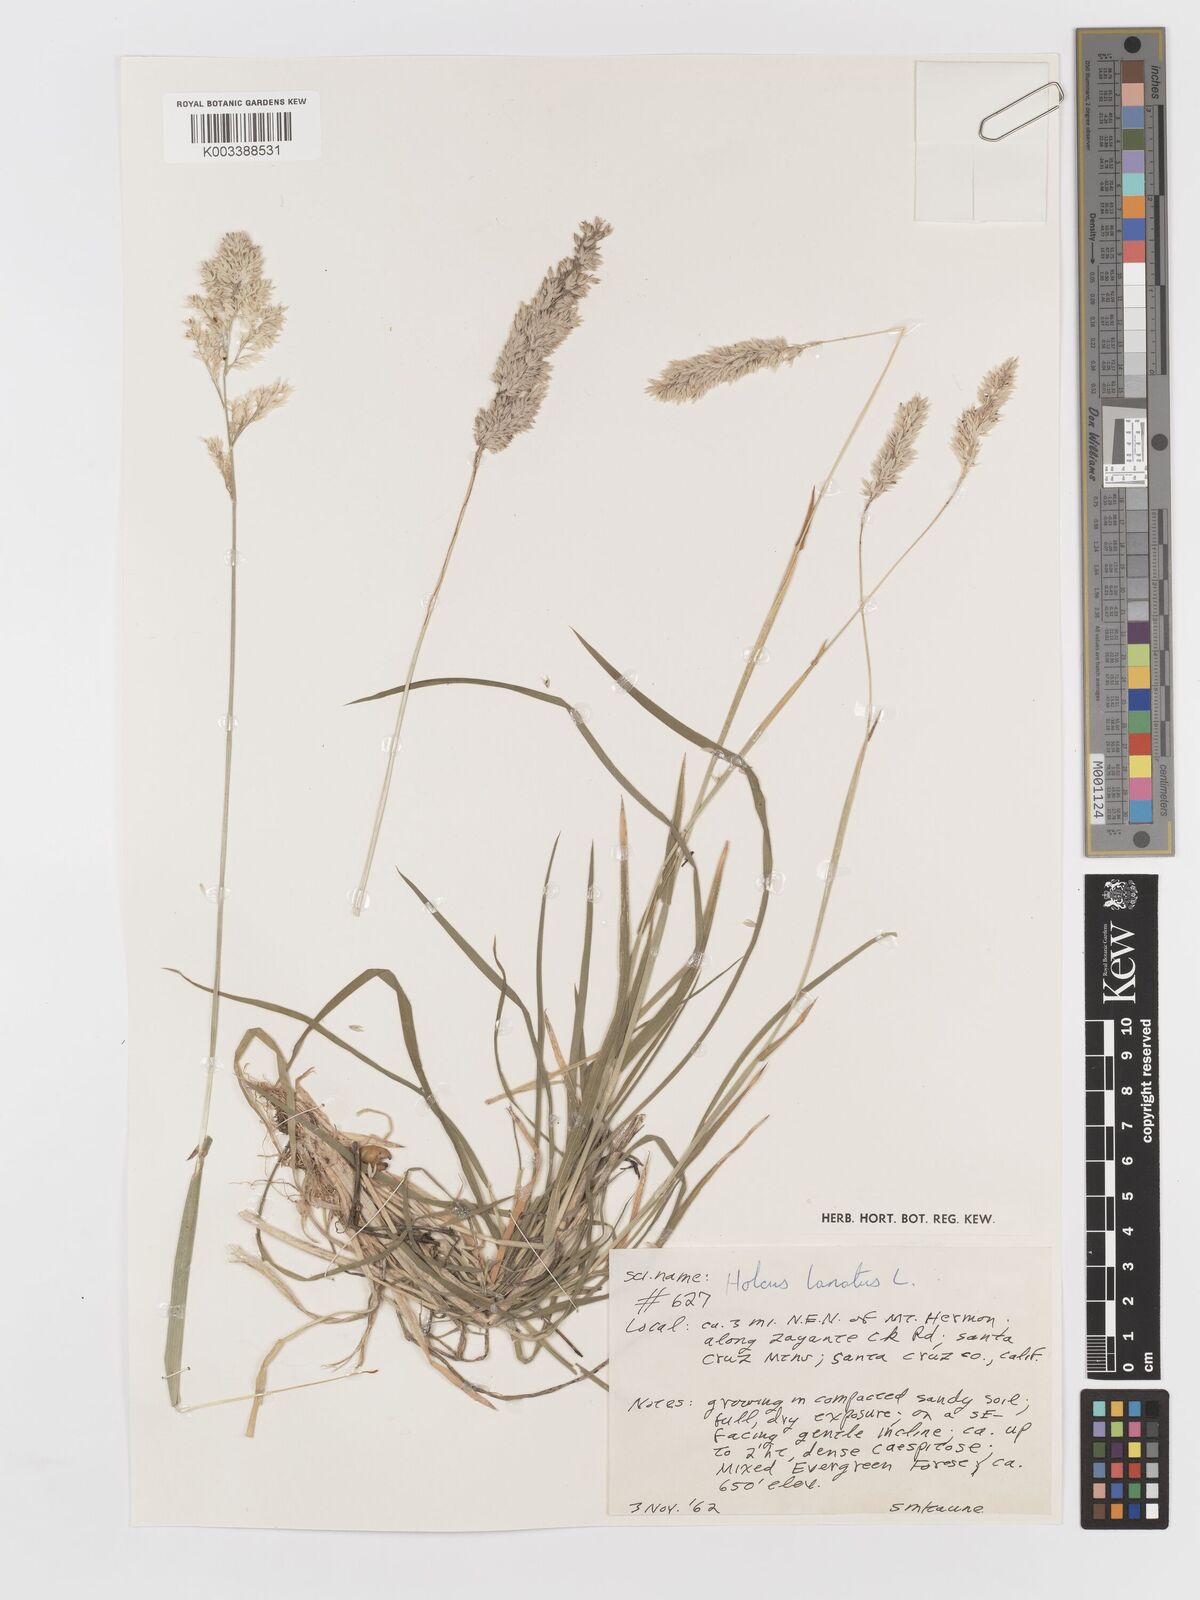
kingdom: Plantae
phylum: Tracheophyta
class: Liliopsida
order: Poales
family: Poaceae
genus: Holcus
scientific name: Holcus lanatus
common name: Yorkshire-fog
